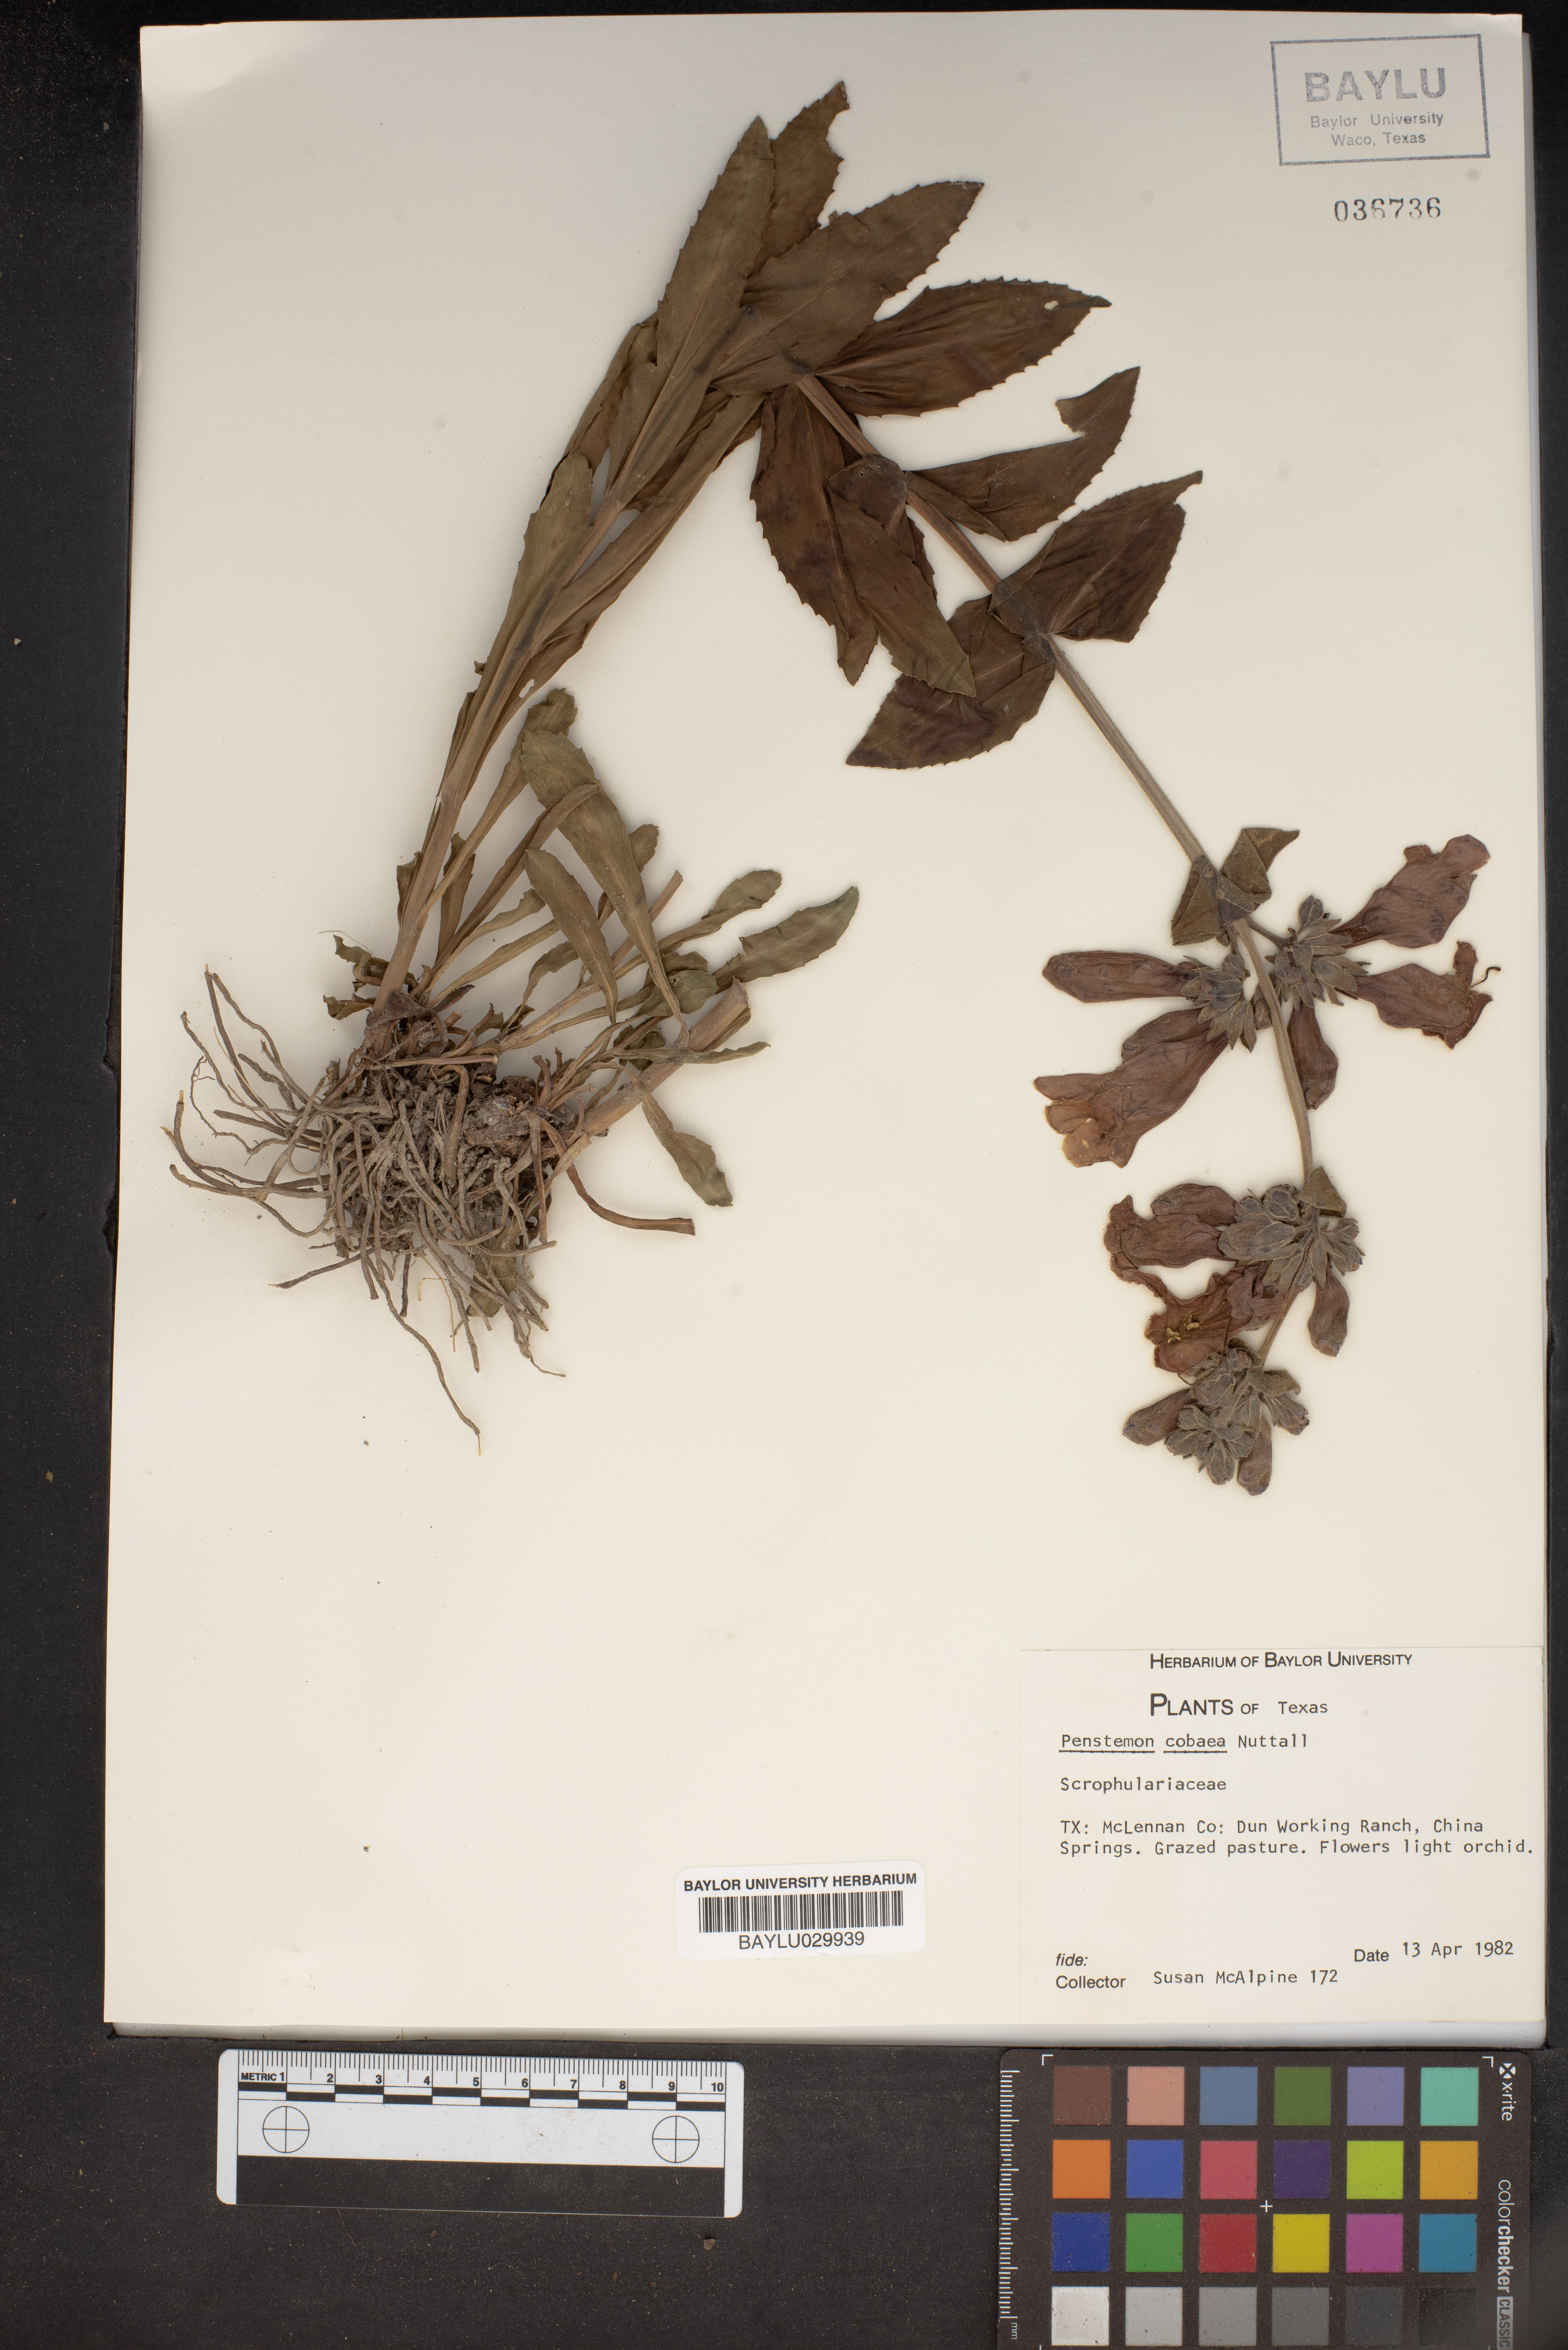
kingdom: Plantae
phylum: Tracheophyta
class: Magnoliopsida
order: Lamiales
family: Plantaginaceae
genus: Penstemon
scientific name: Penstemon cobaea
